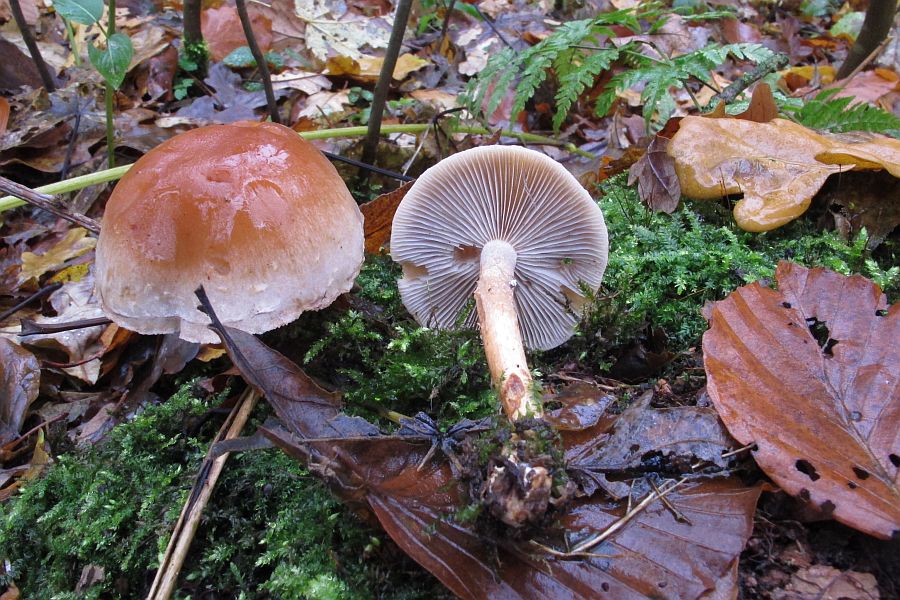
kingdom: Fungi
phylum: Basidiomycota
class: Agaricomycetes
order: Agaricales
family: Hymenogastraceae
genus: Hebeloma
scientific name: Hebeloma mesophaeum
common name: lerbrun tåreblad
